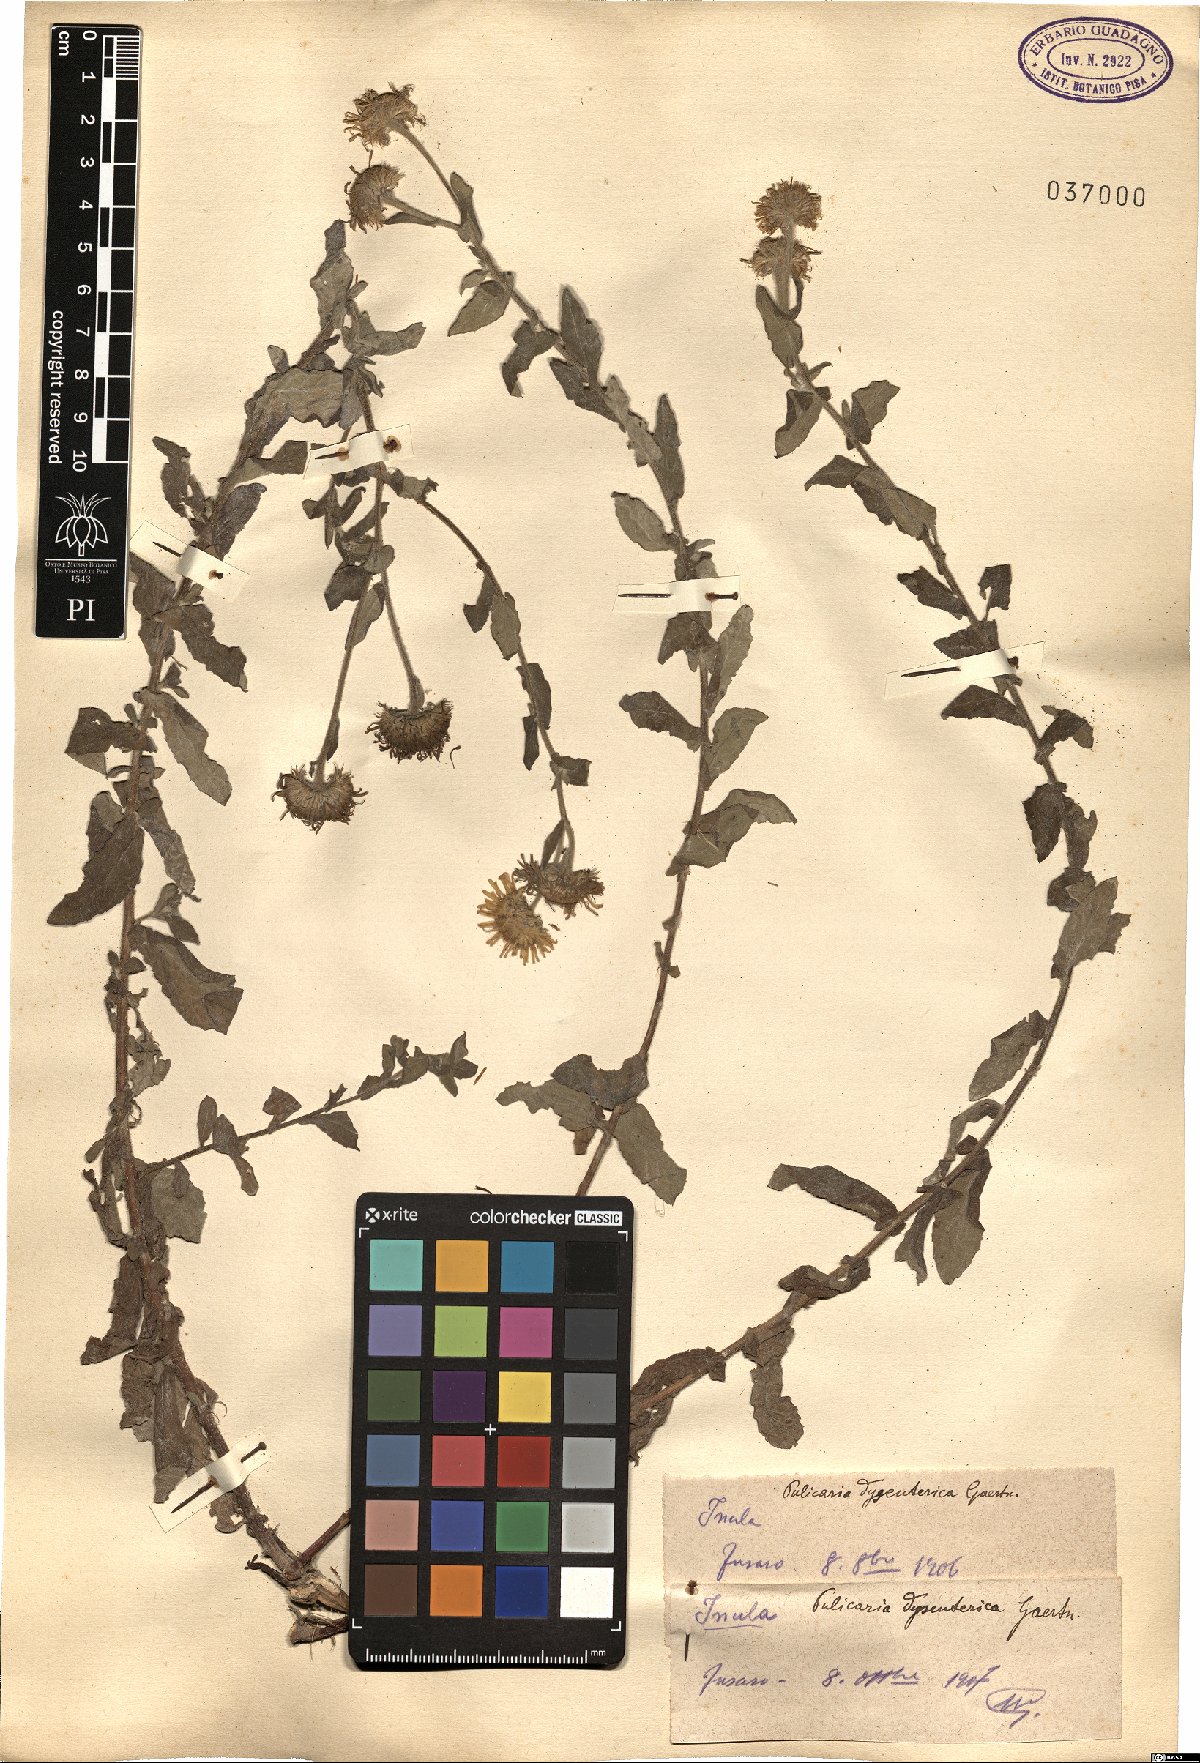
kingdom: Plantae
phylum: Tracheophyta
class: Magnoliopsida
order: Asterales
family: Asteraceae
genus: Pulicaria
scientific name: Pulicaria dysenterica
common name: Common fleabane
